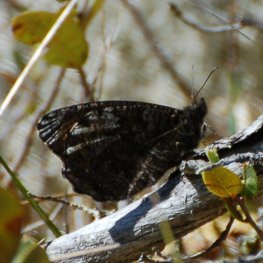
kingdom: Animalia
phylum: Arthropoda
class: Insecta
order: Lepidoptera
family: Nymphalidae
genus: Oeneis
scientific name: Oeneis jutta
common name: Jutta Arctic
